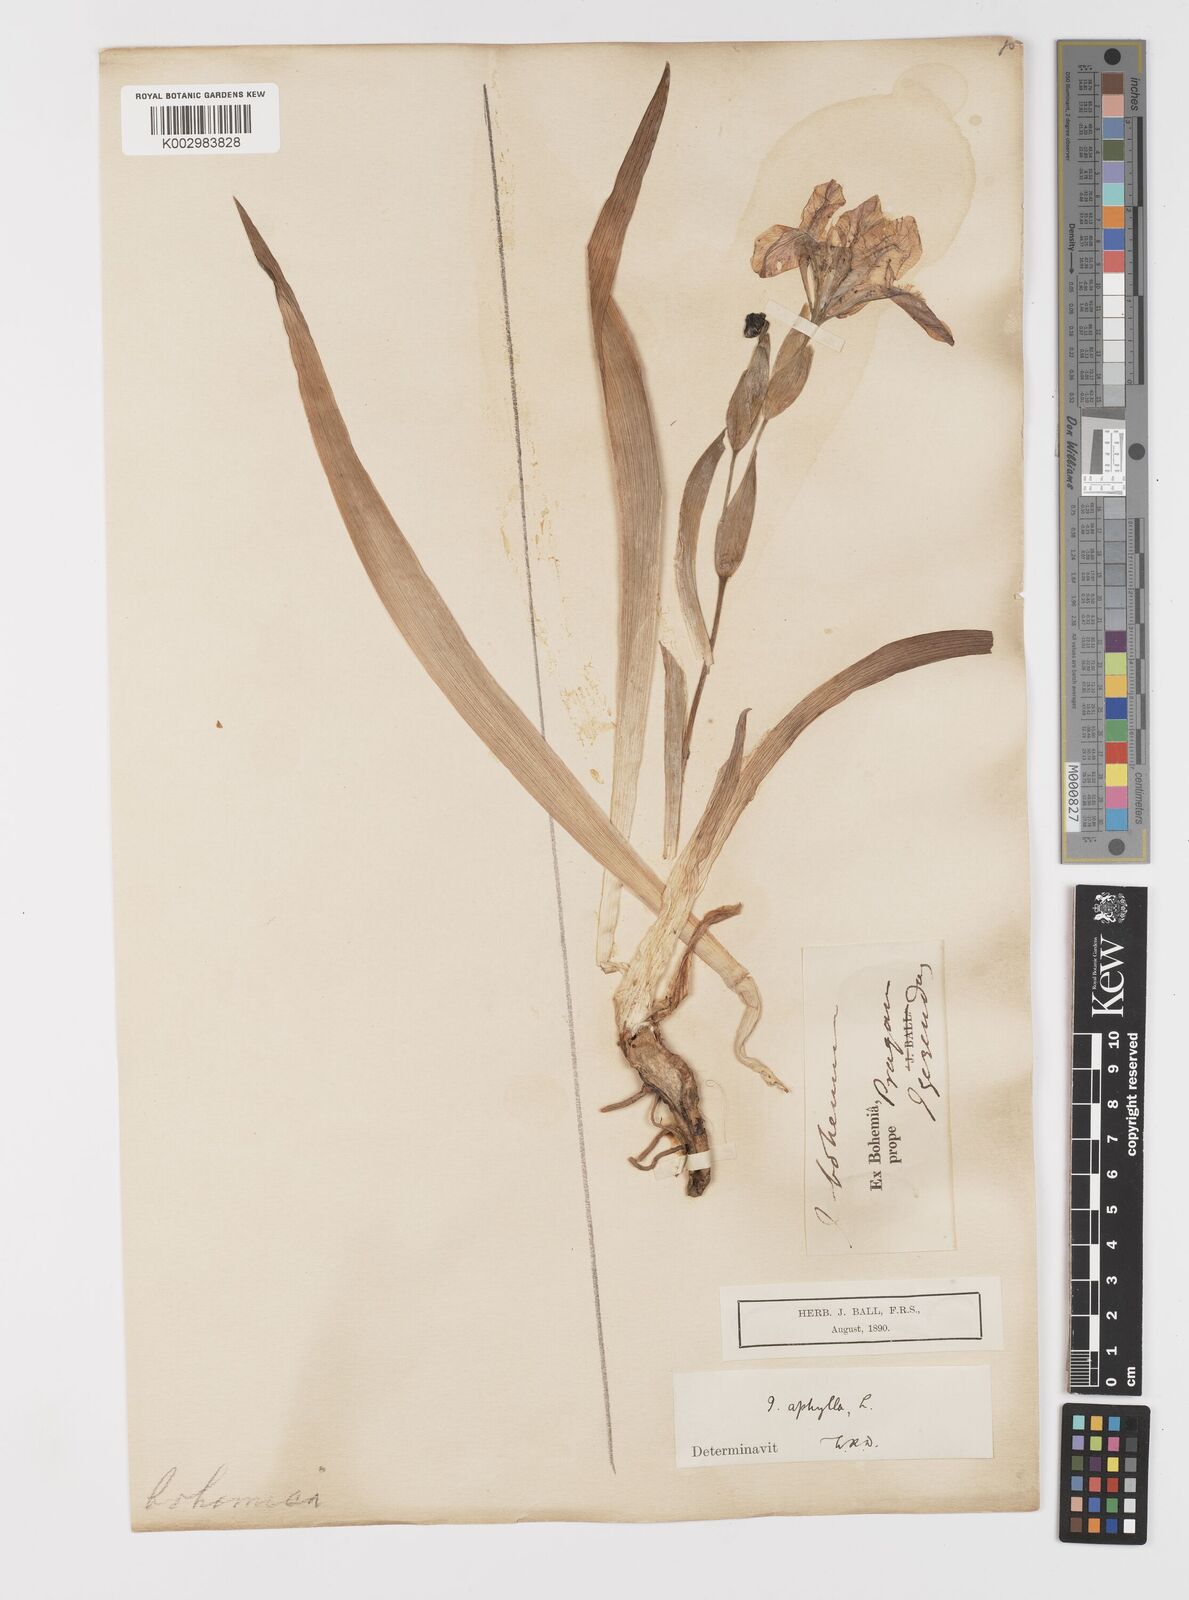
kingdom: Plantae
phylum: Tracheophyta
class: Liliopsida
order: Asparagales
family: Iridaceae
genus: Iris
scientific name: Iris aphylla
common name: Stool iris
